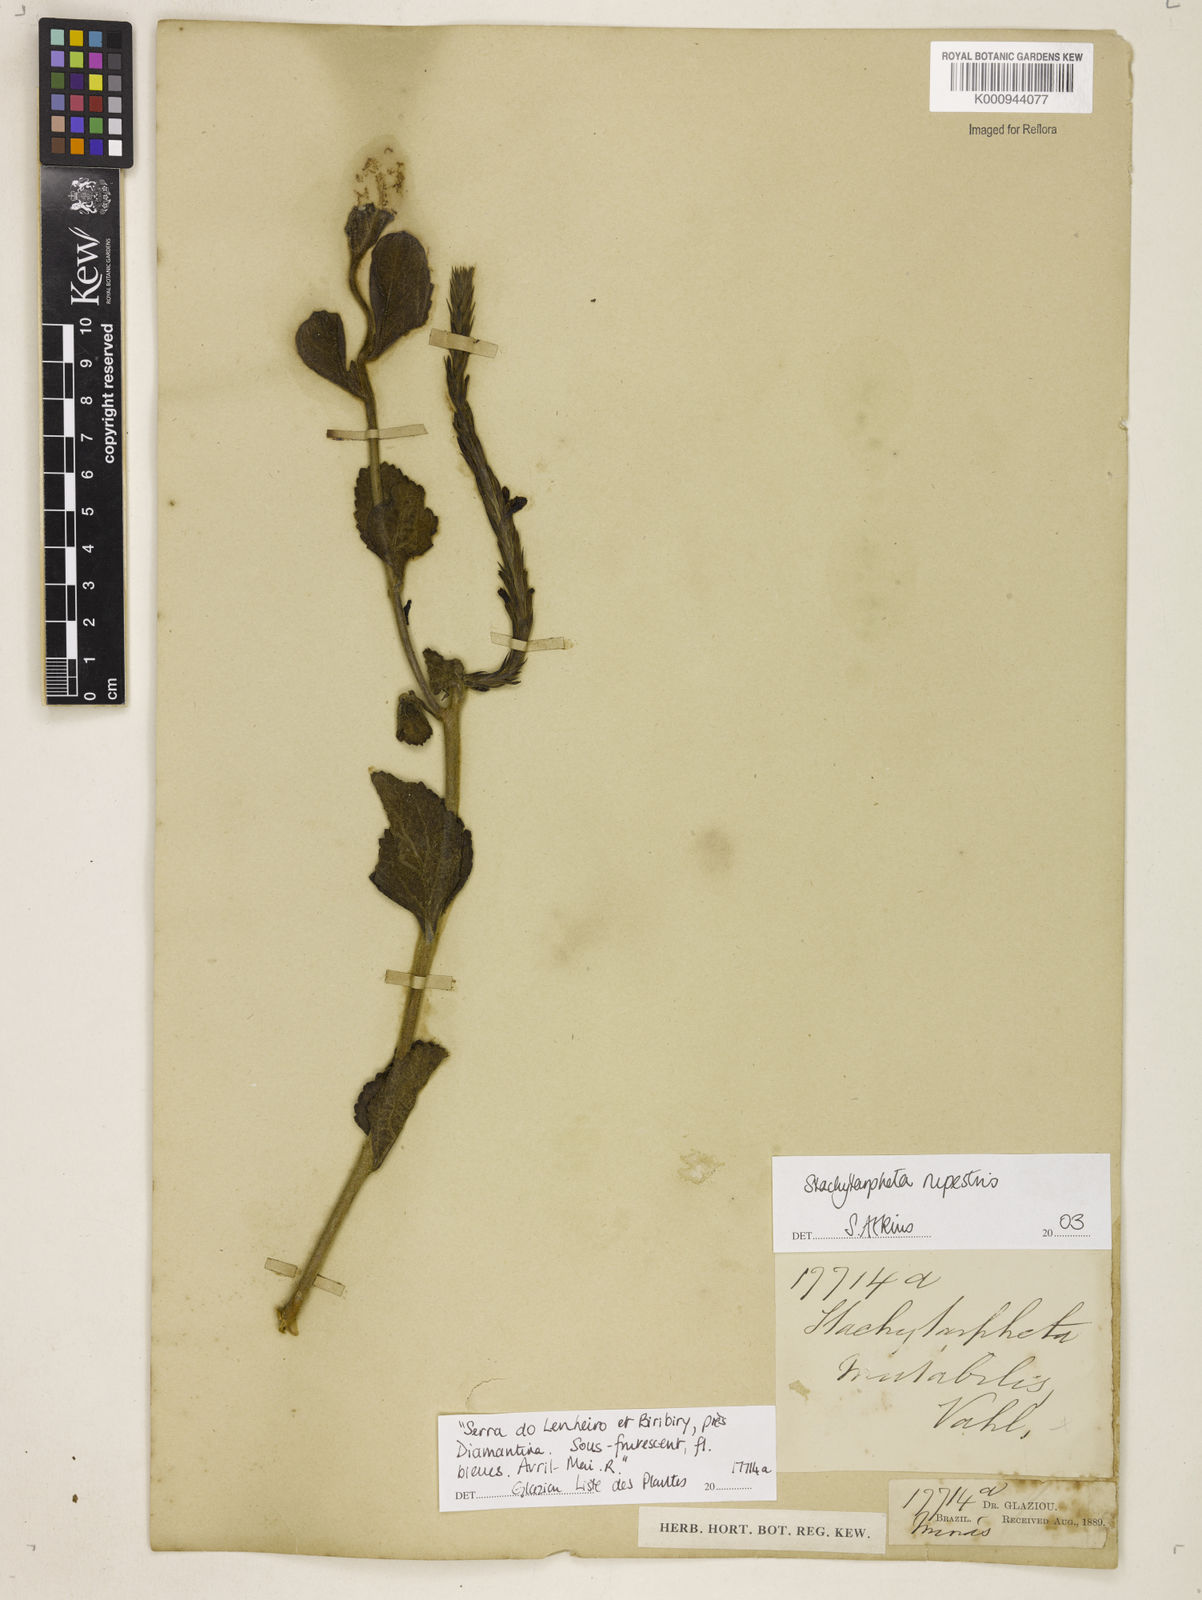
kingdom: Plantae
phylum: Tracheophyta
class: Magnoliopsida
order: Lamiales
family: Verbenaceae
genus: Stachytarpheta
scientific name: Stachytarpheta rupestris
